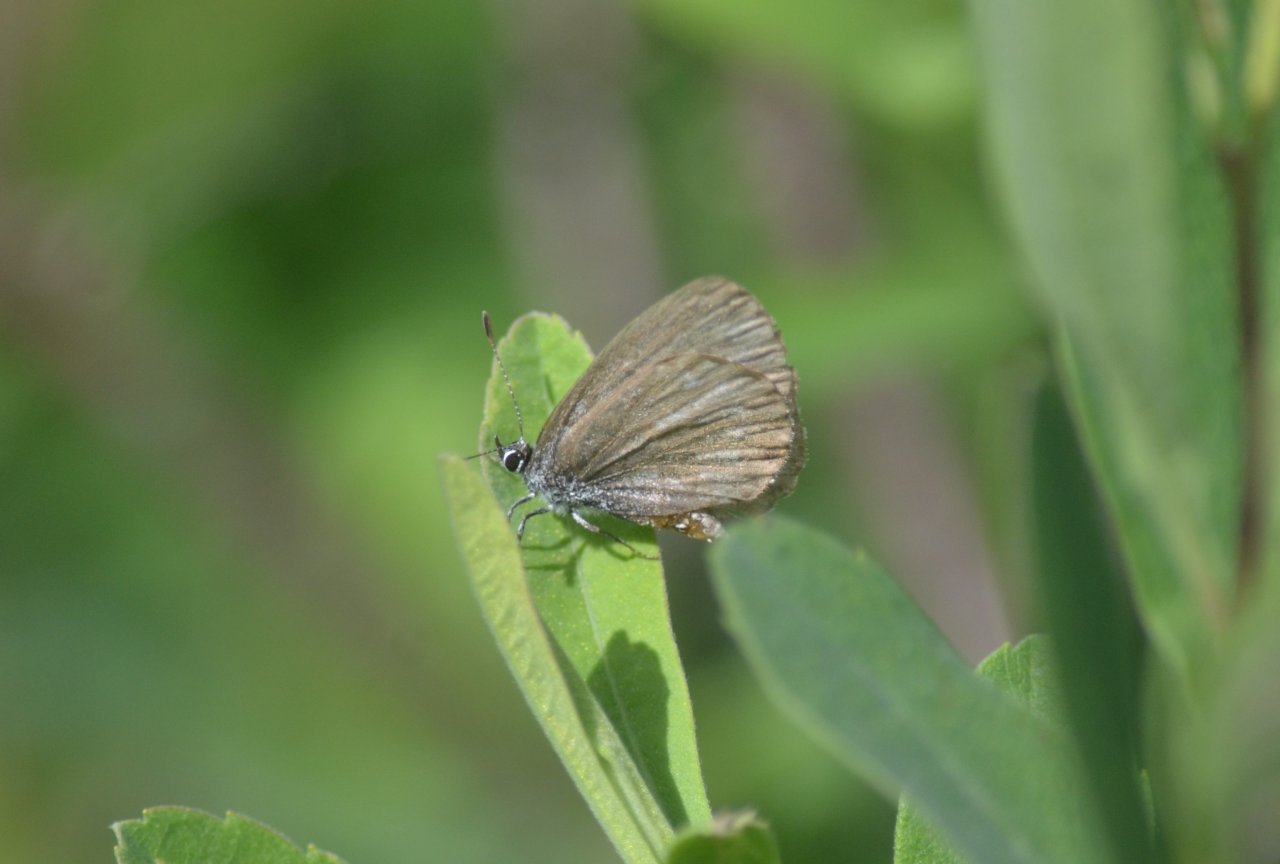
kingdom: Animalia
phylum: Arthropoda
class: Insecta
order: Lepidoptera
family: Lycaenidae
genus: Celastrina
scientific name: Celastrina lucia
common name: Northern Spring Azure
